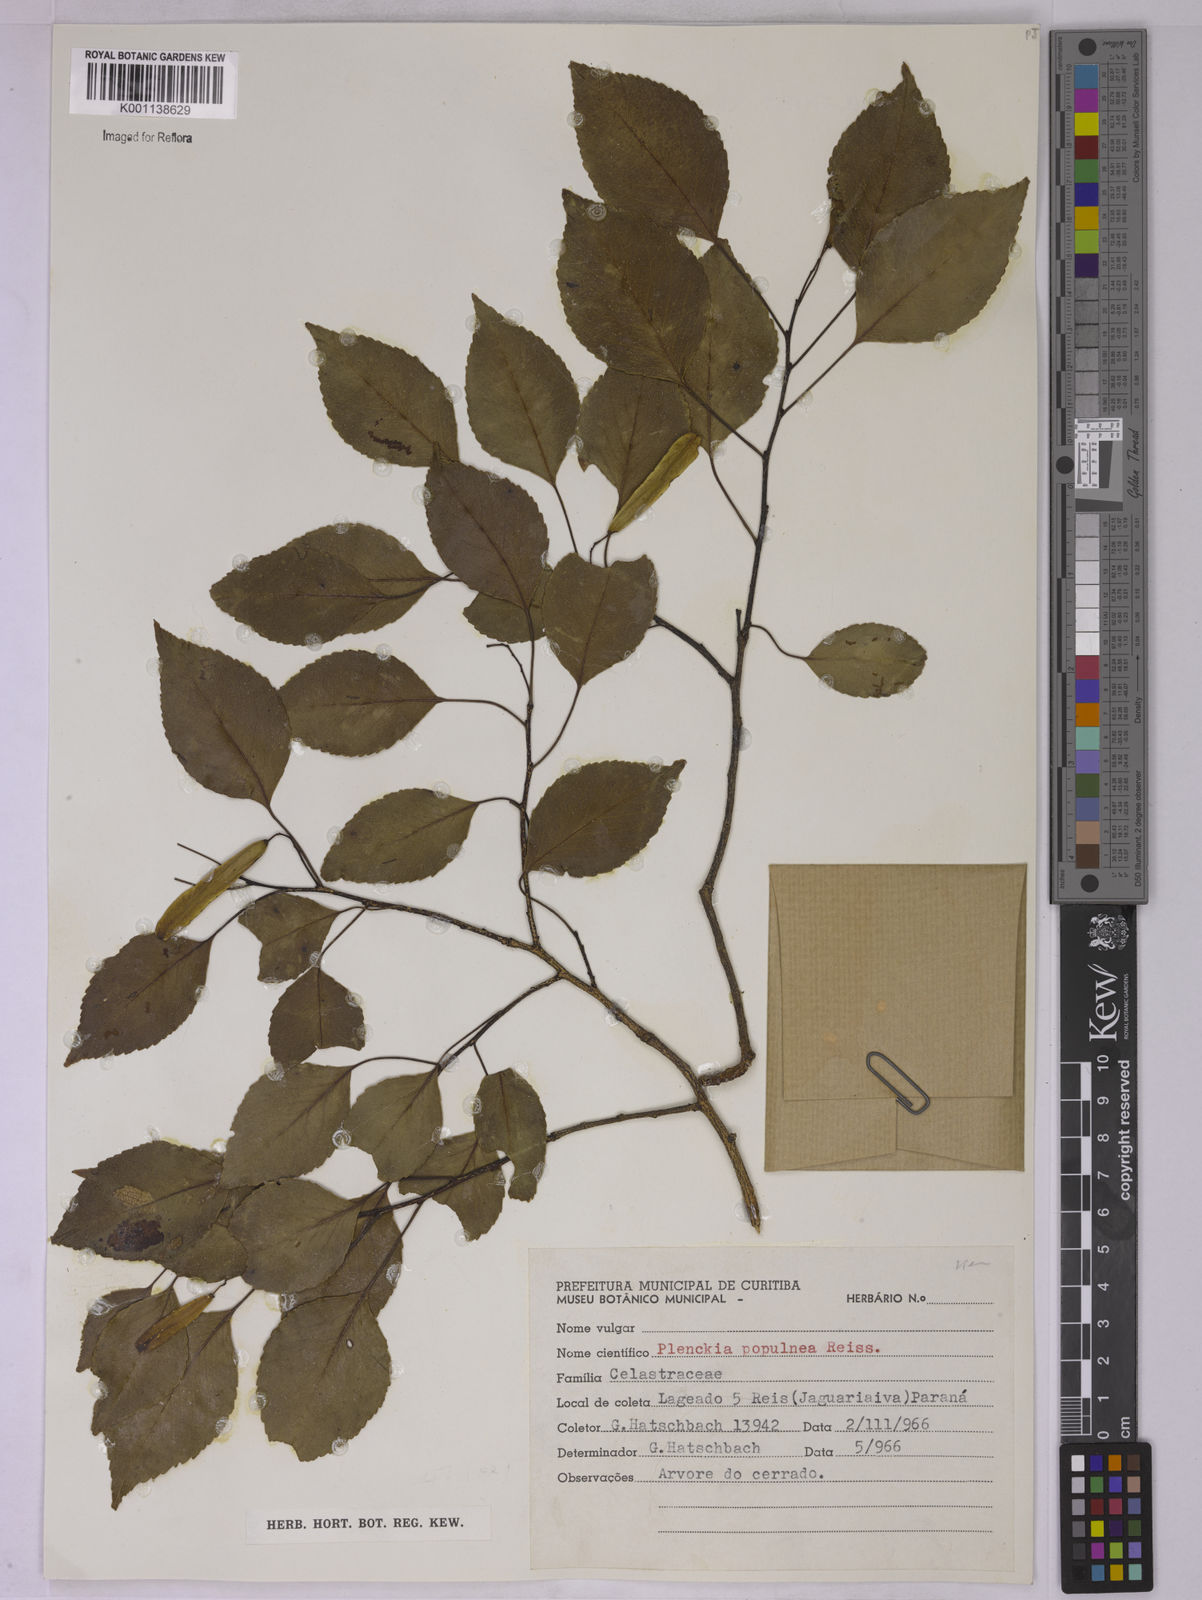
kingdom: Plantae
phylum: Tracheophyta
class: Magnoliopsida
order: Celastrales
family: Celastraceae
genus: Plenckia
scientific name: Plenckia populnea
